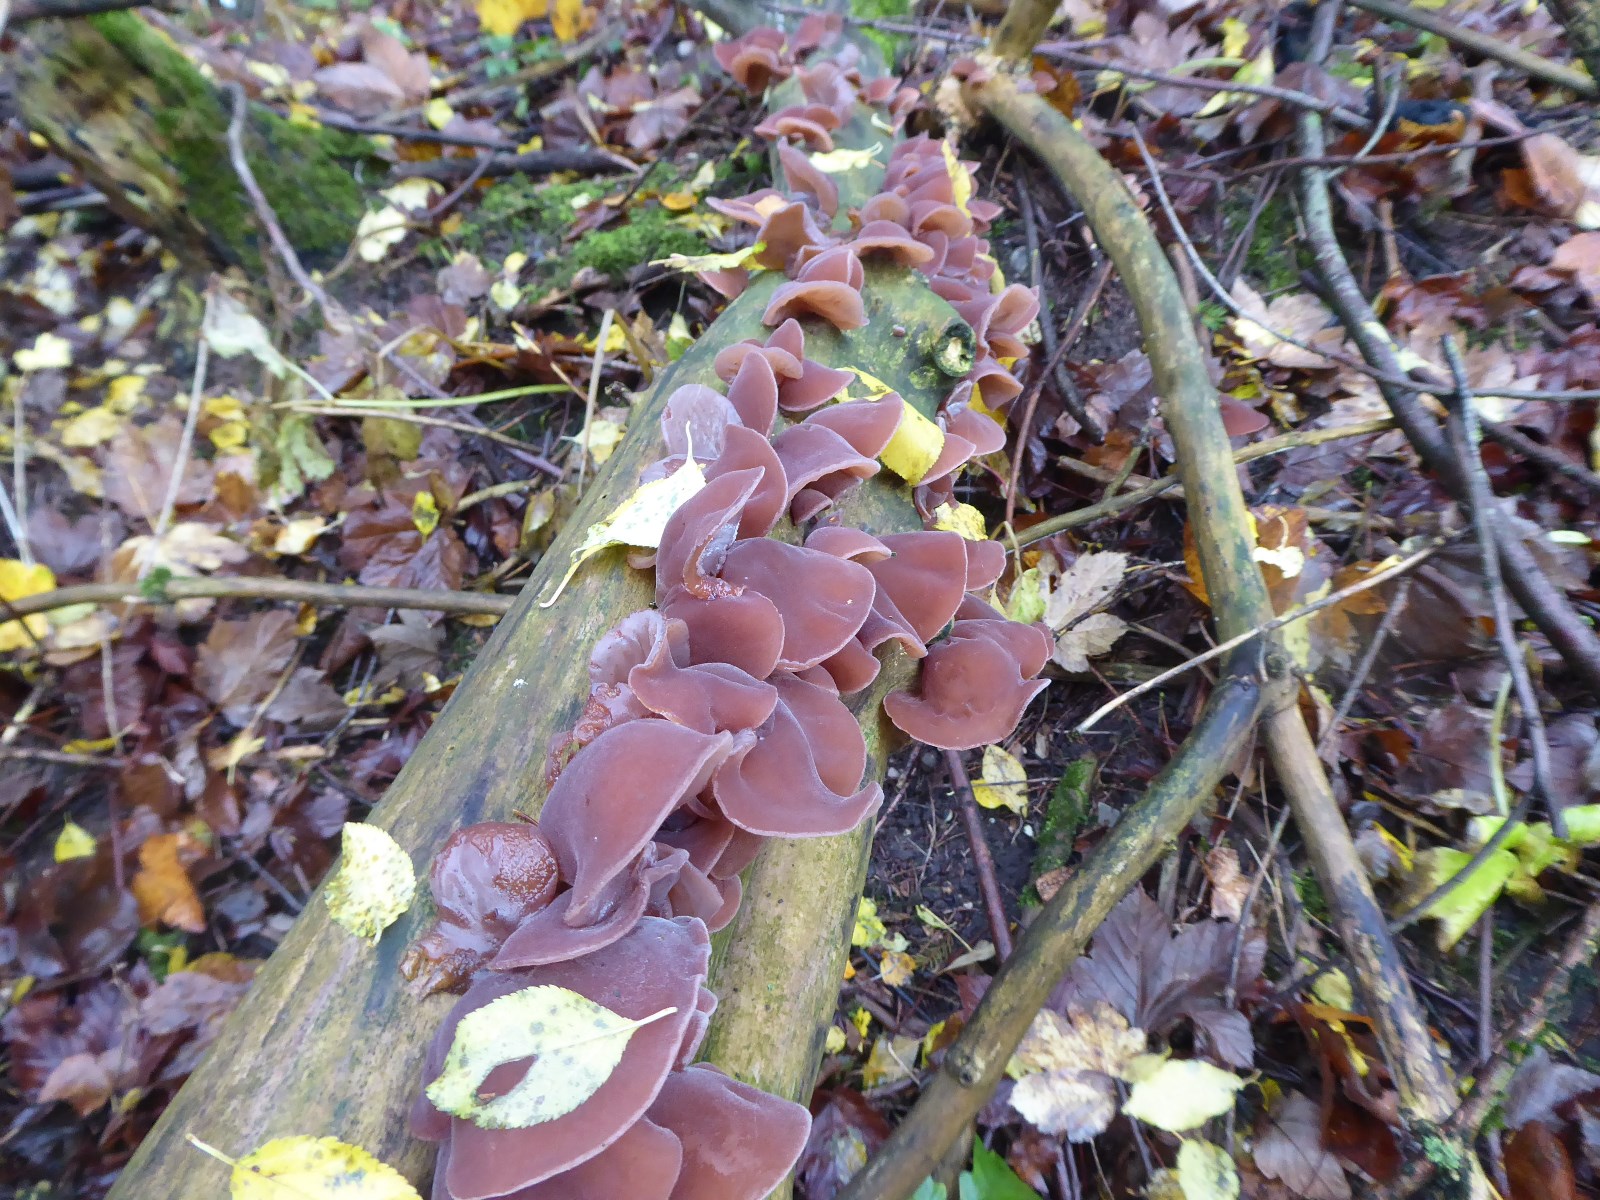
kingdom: Fungi
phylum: Basidiomycota
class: Agaricomycetes
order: Auriculariales
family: Auriculariaceae
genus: Auricularia
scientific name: Auricularia auricula-judae
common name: almindelig judasøre
